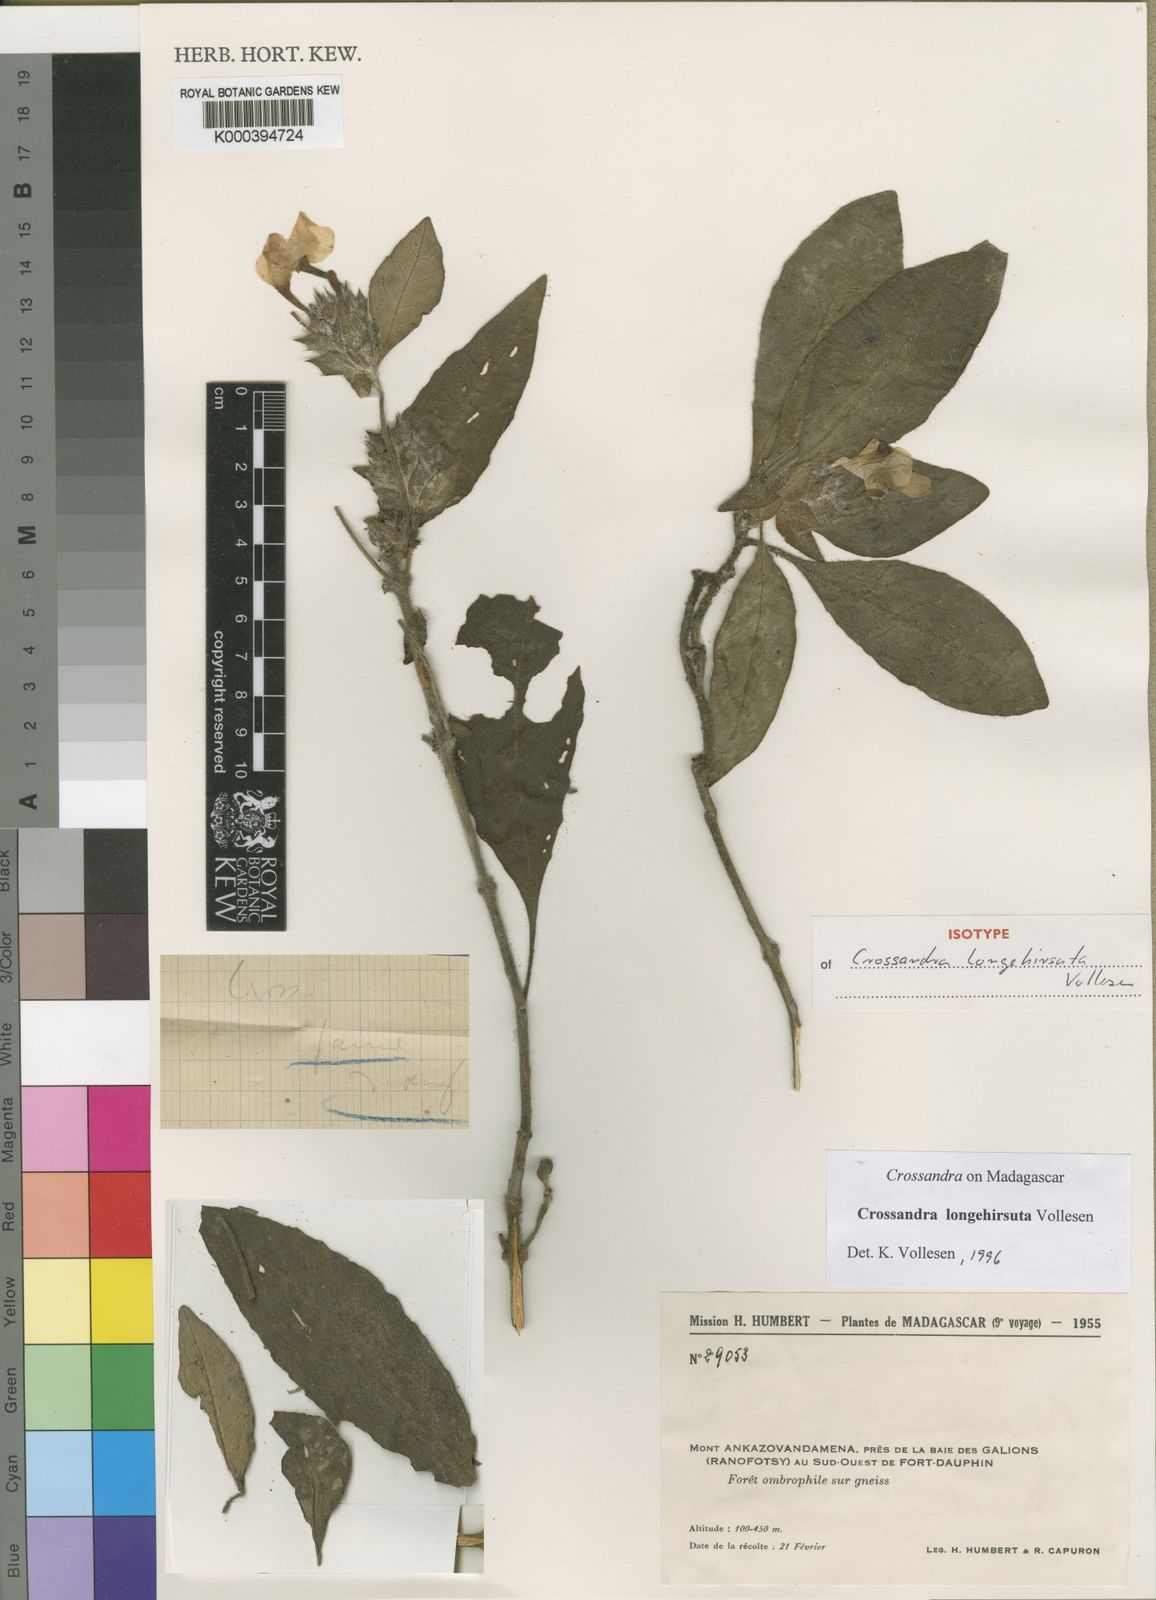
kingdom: Plantae
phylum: Tracheophyta
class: Magnoliopsida
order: Lamiales
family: Acanthaceae
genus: Crossandra
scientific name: Crossandra longehirsuta
